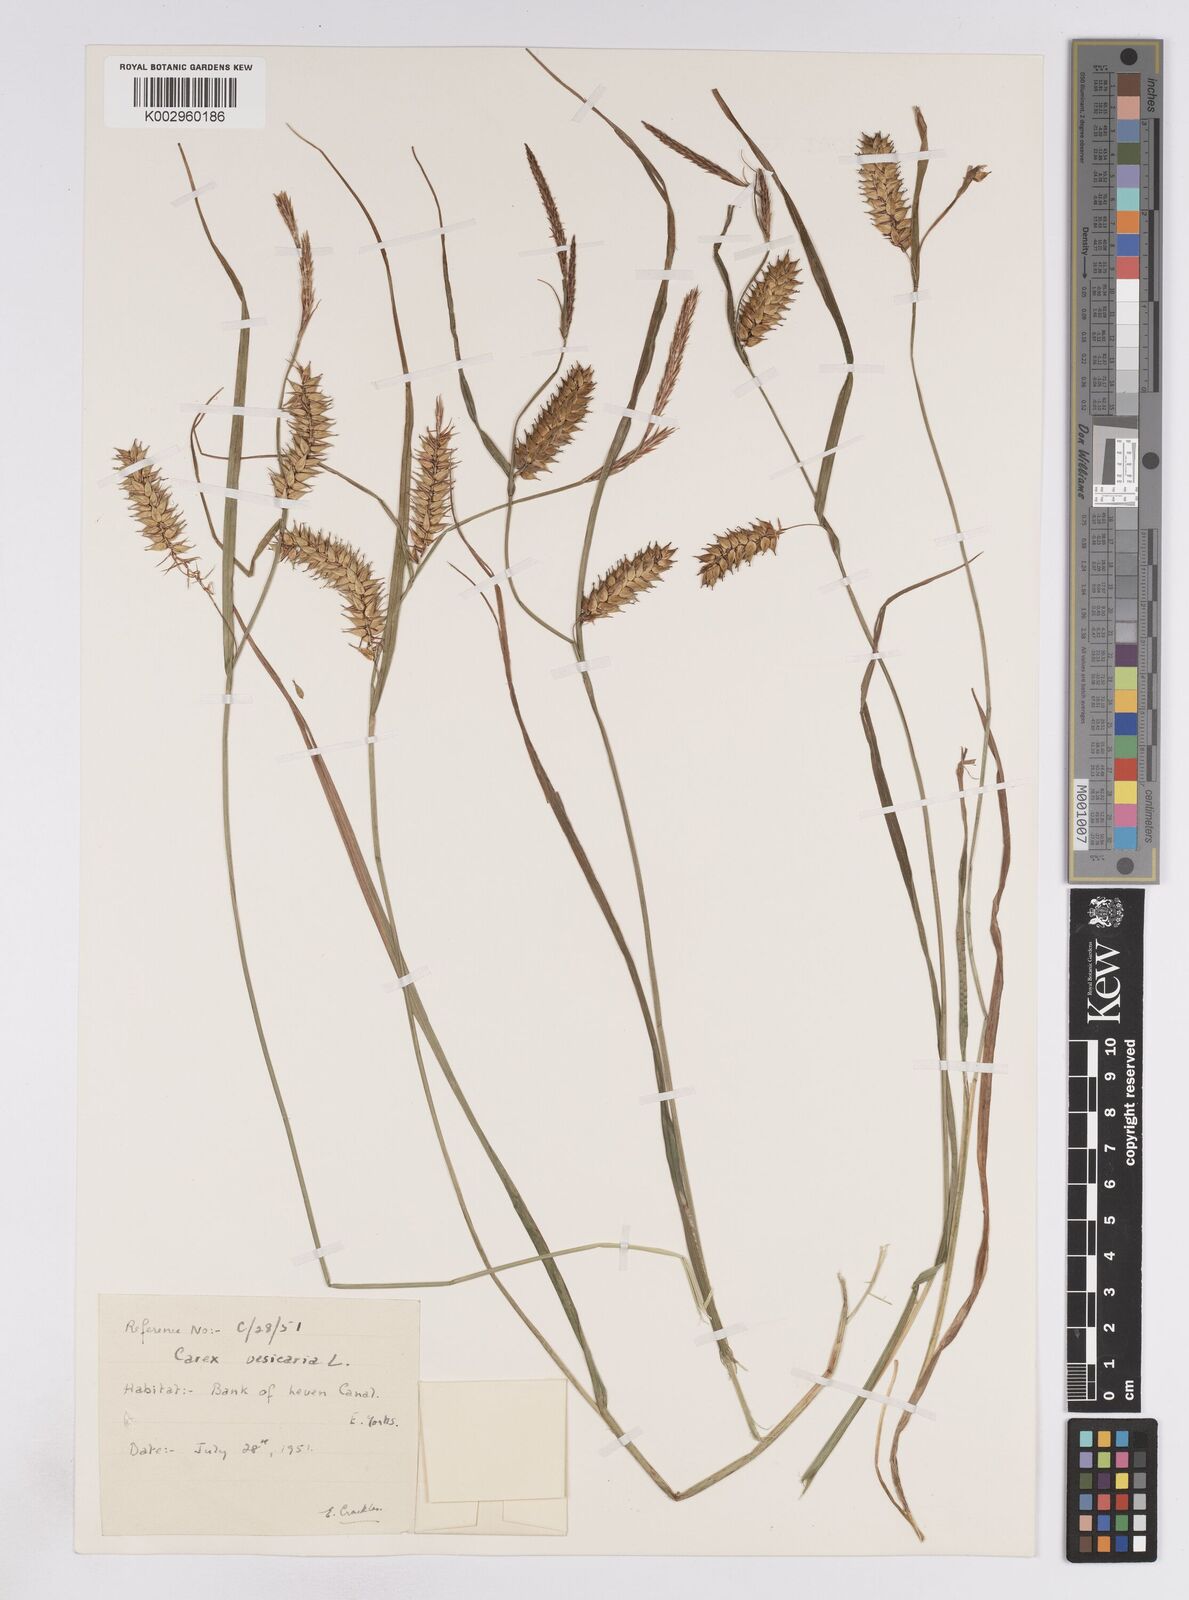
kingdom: Plantae
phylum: Tracheophyta
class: Liliopsida
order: Poales
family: Cyperaceae
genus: Carex
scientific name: Carex vesicaria
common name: Bladder-sedge
